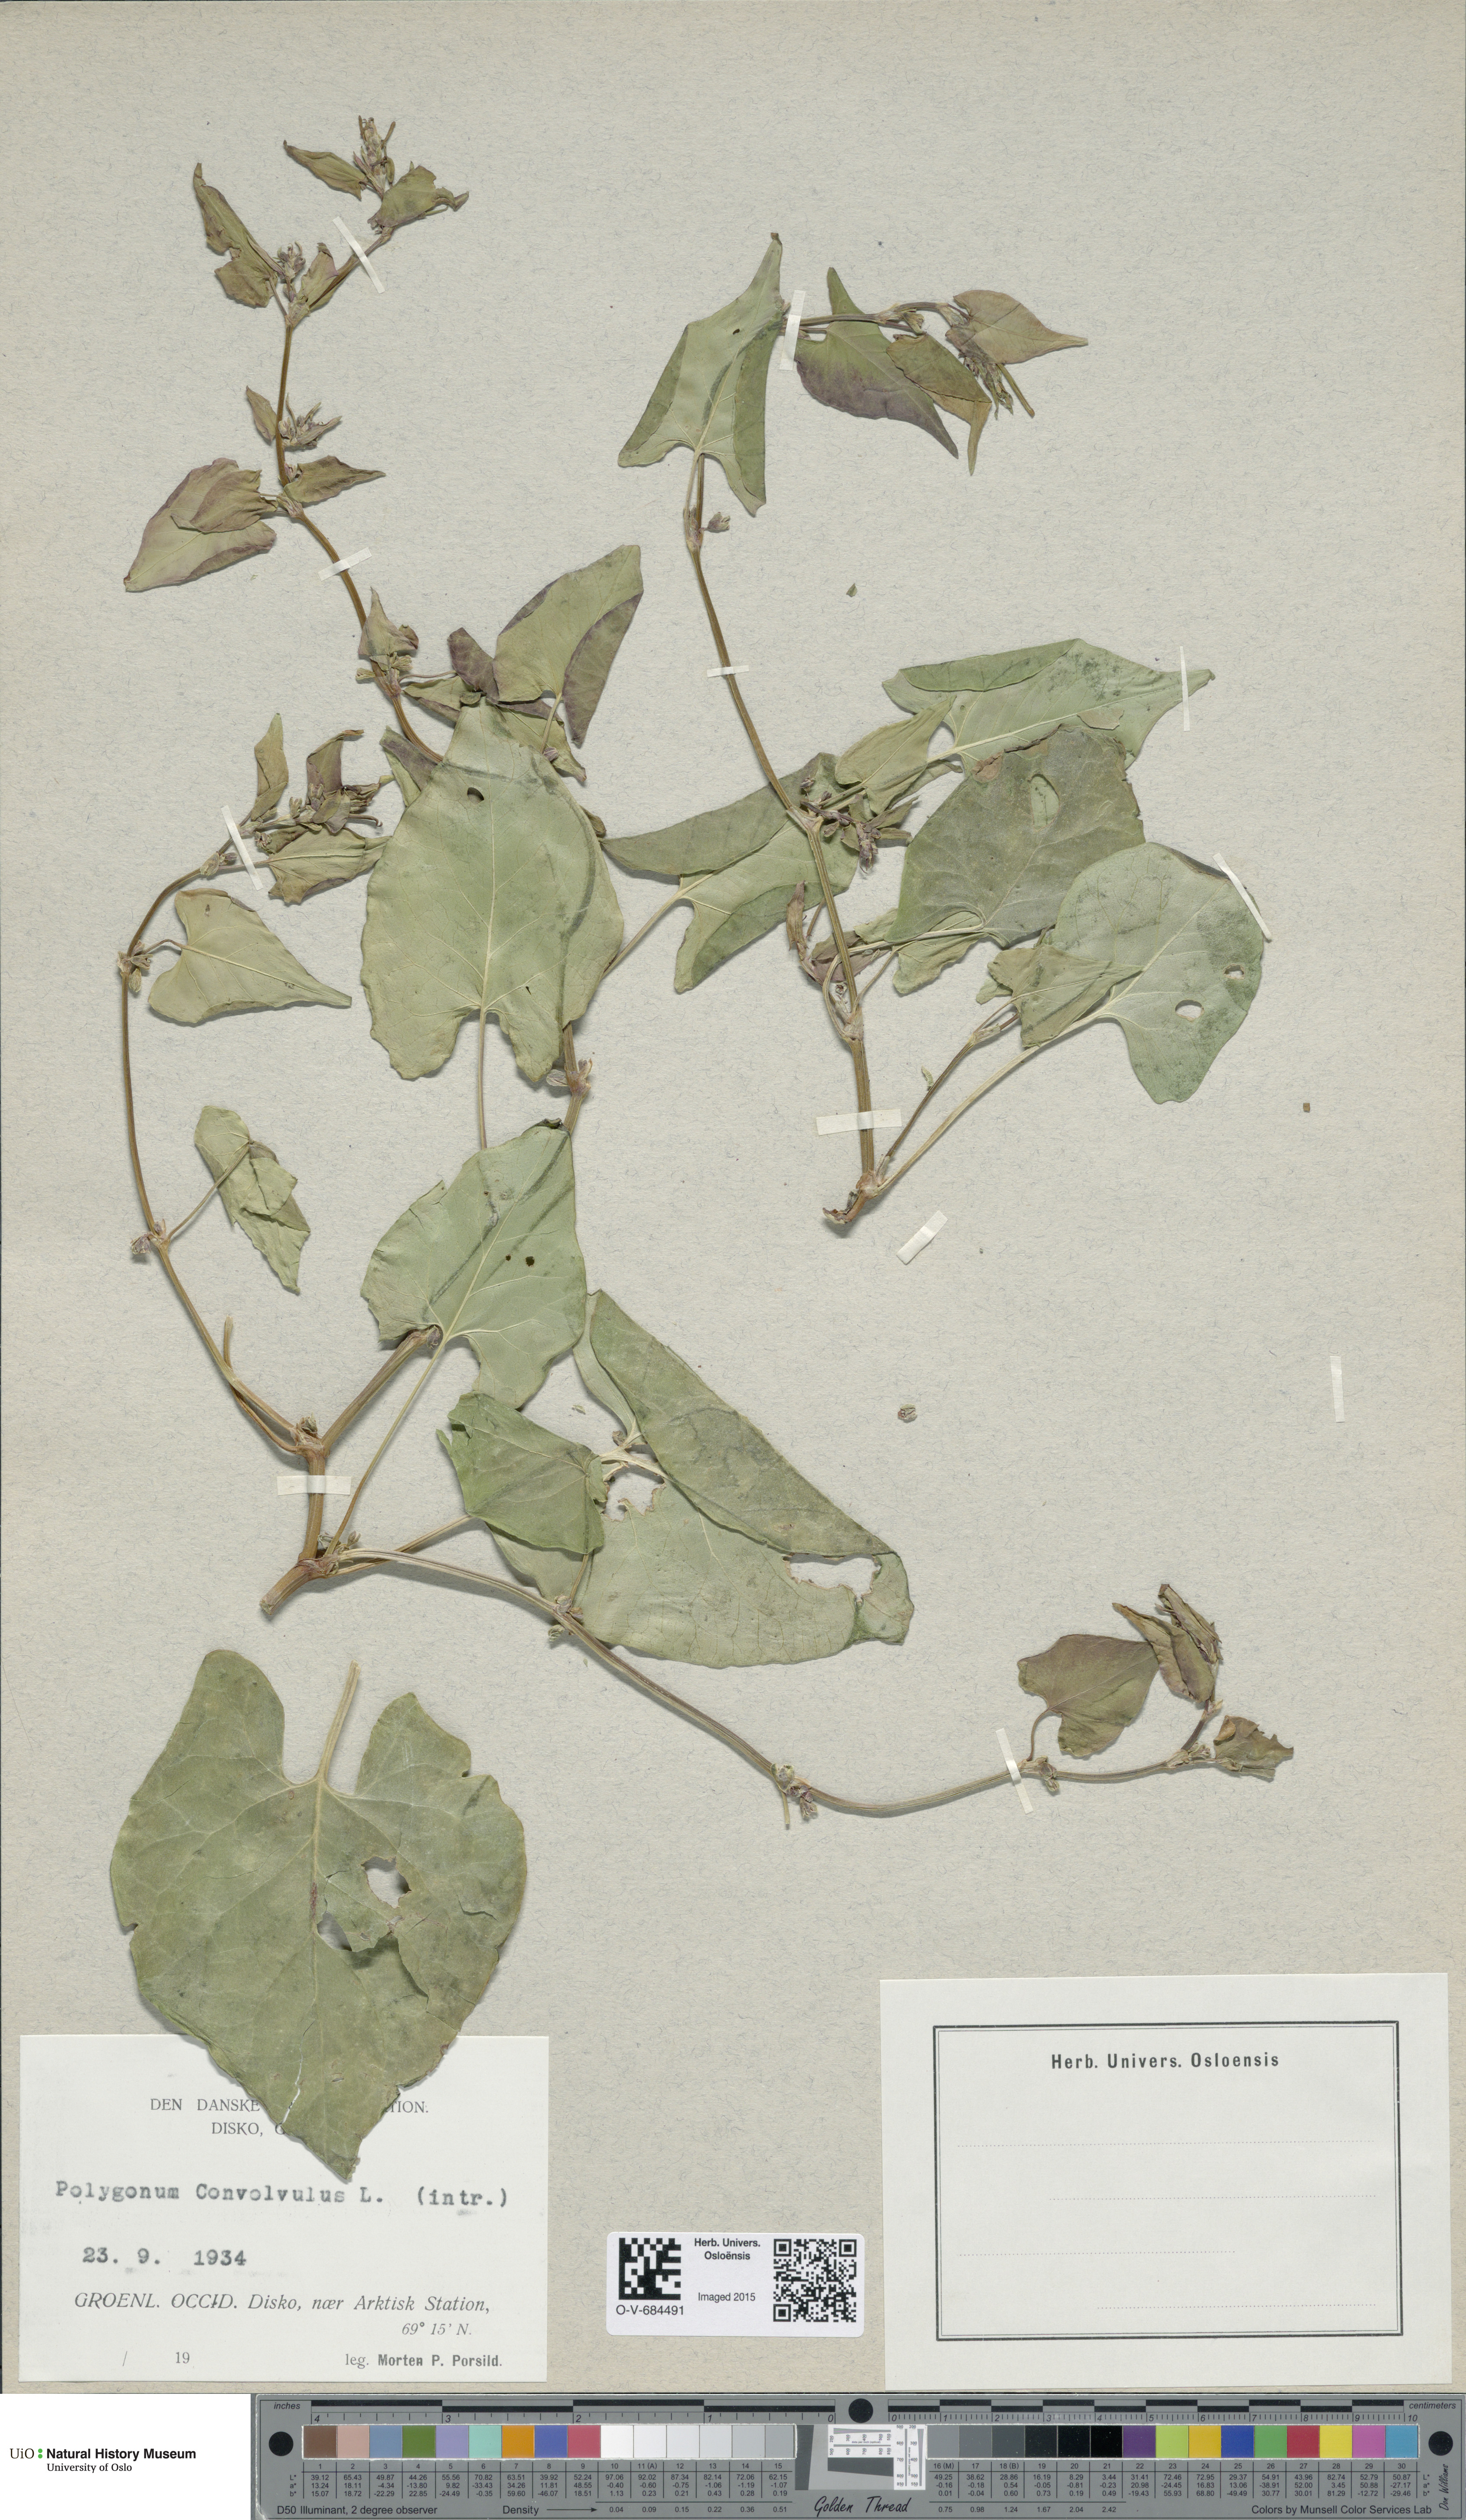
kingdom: Plantae
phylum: Tracheophyta
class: Magnoliopsida
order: Caryophyllales
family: Polygonaceae
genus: Fallopia
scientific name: Fallopia convolvulus
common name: Black bindweed
